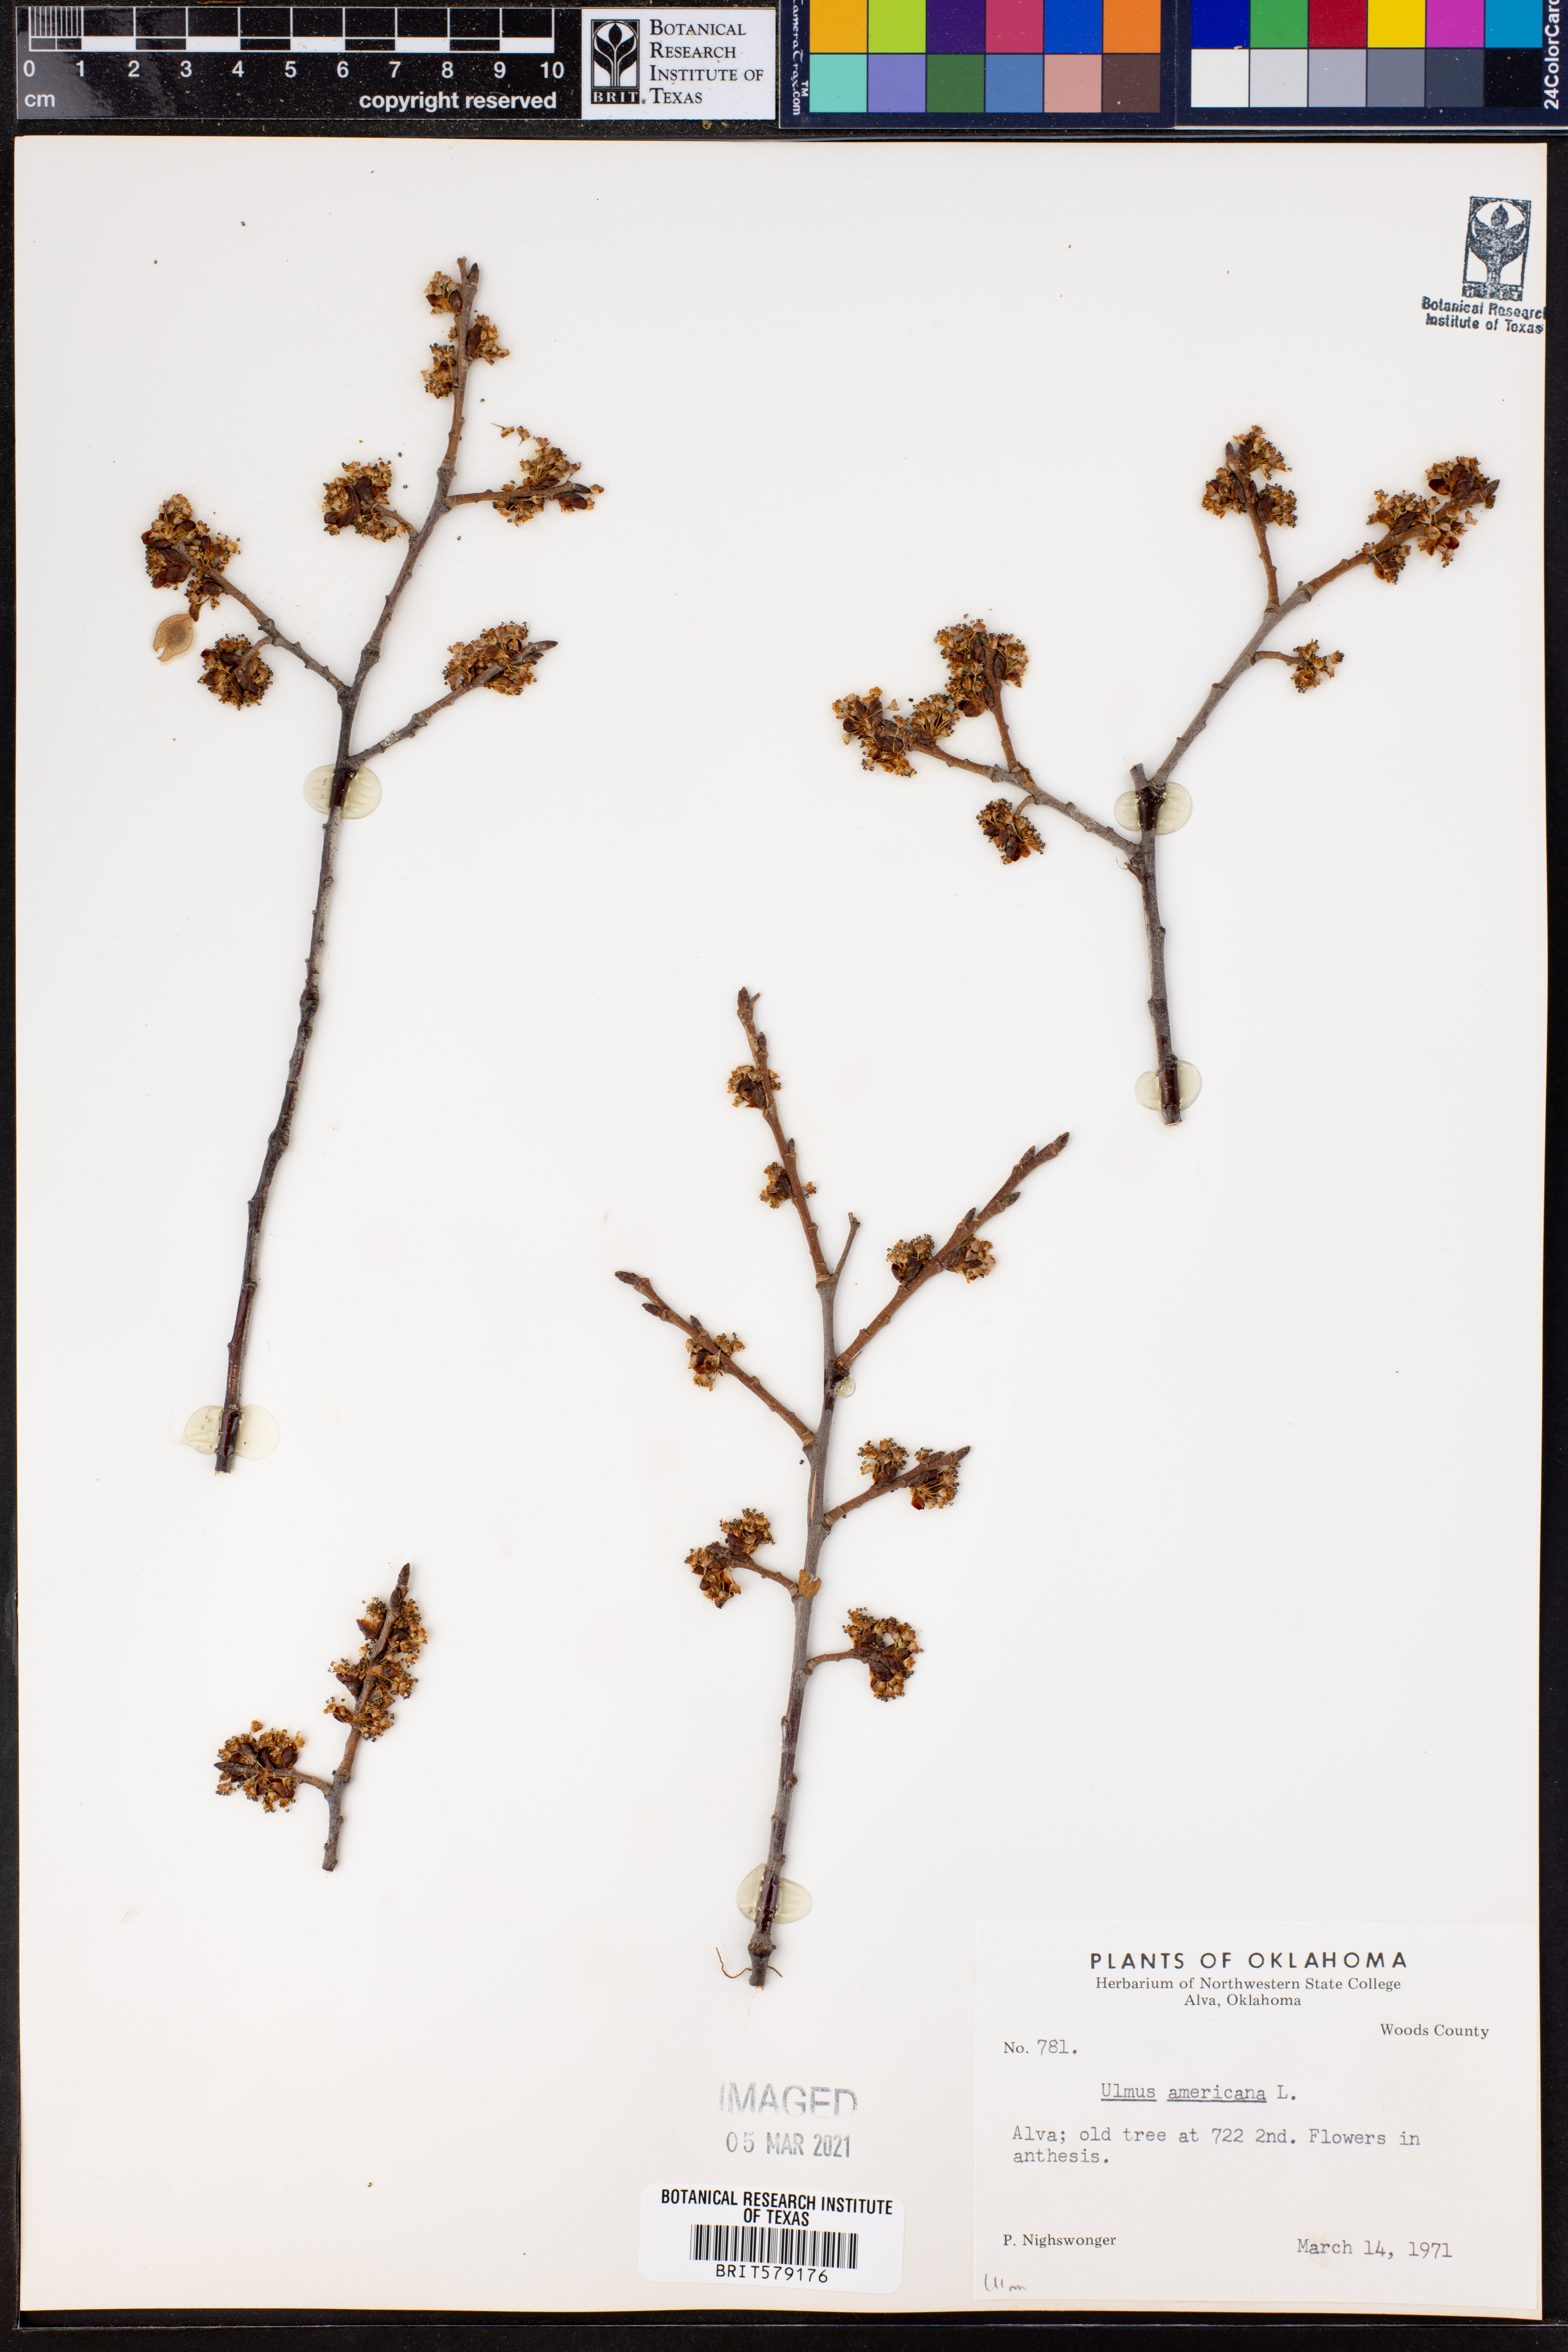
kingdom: Plantae
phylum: Tracheophyta
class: Magnoliopsida
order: Rosales
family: Ulmaceae
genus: Ulmus
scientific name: Ulmus americana
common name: American elm
